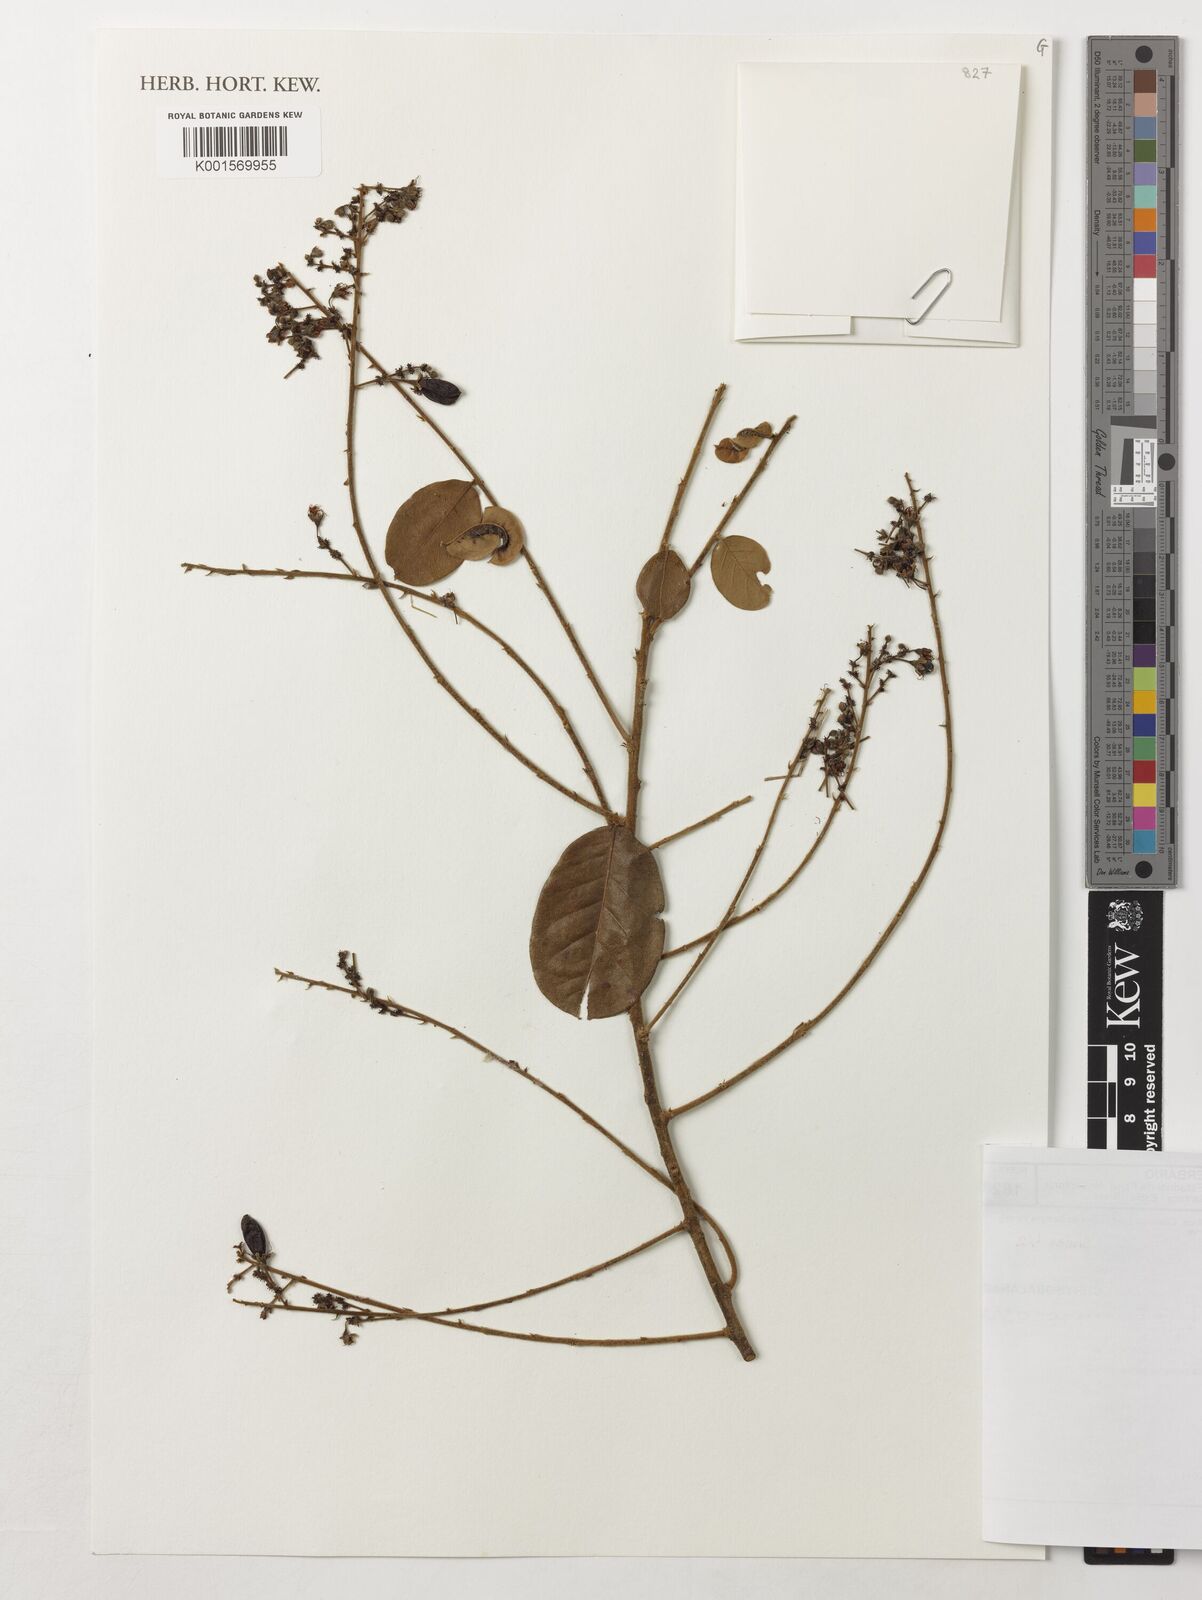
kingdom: Plantae
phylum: Tracheophyta
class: Magnoliopsida
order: Malpighiales
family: Chrysobalanaceae
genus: Hirtella
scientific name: Hirtella ciliata
